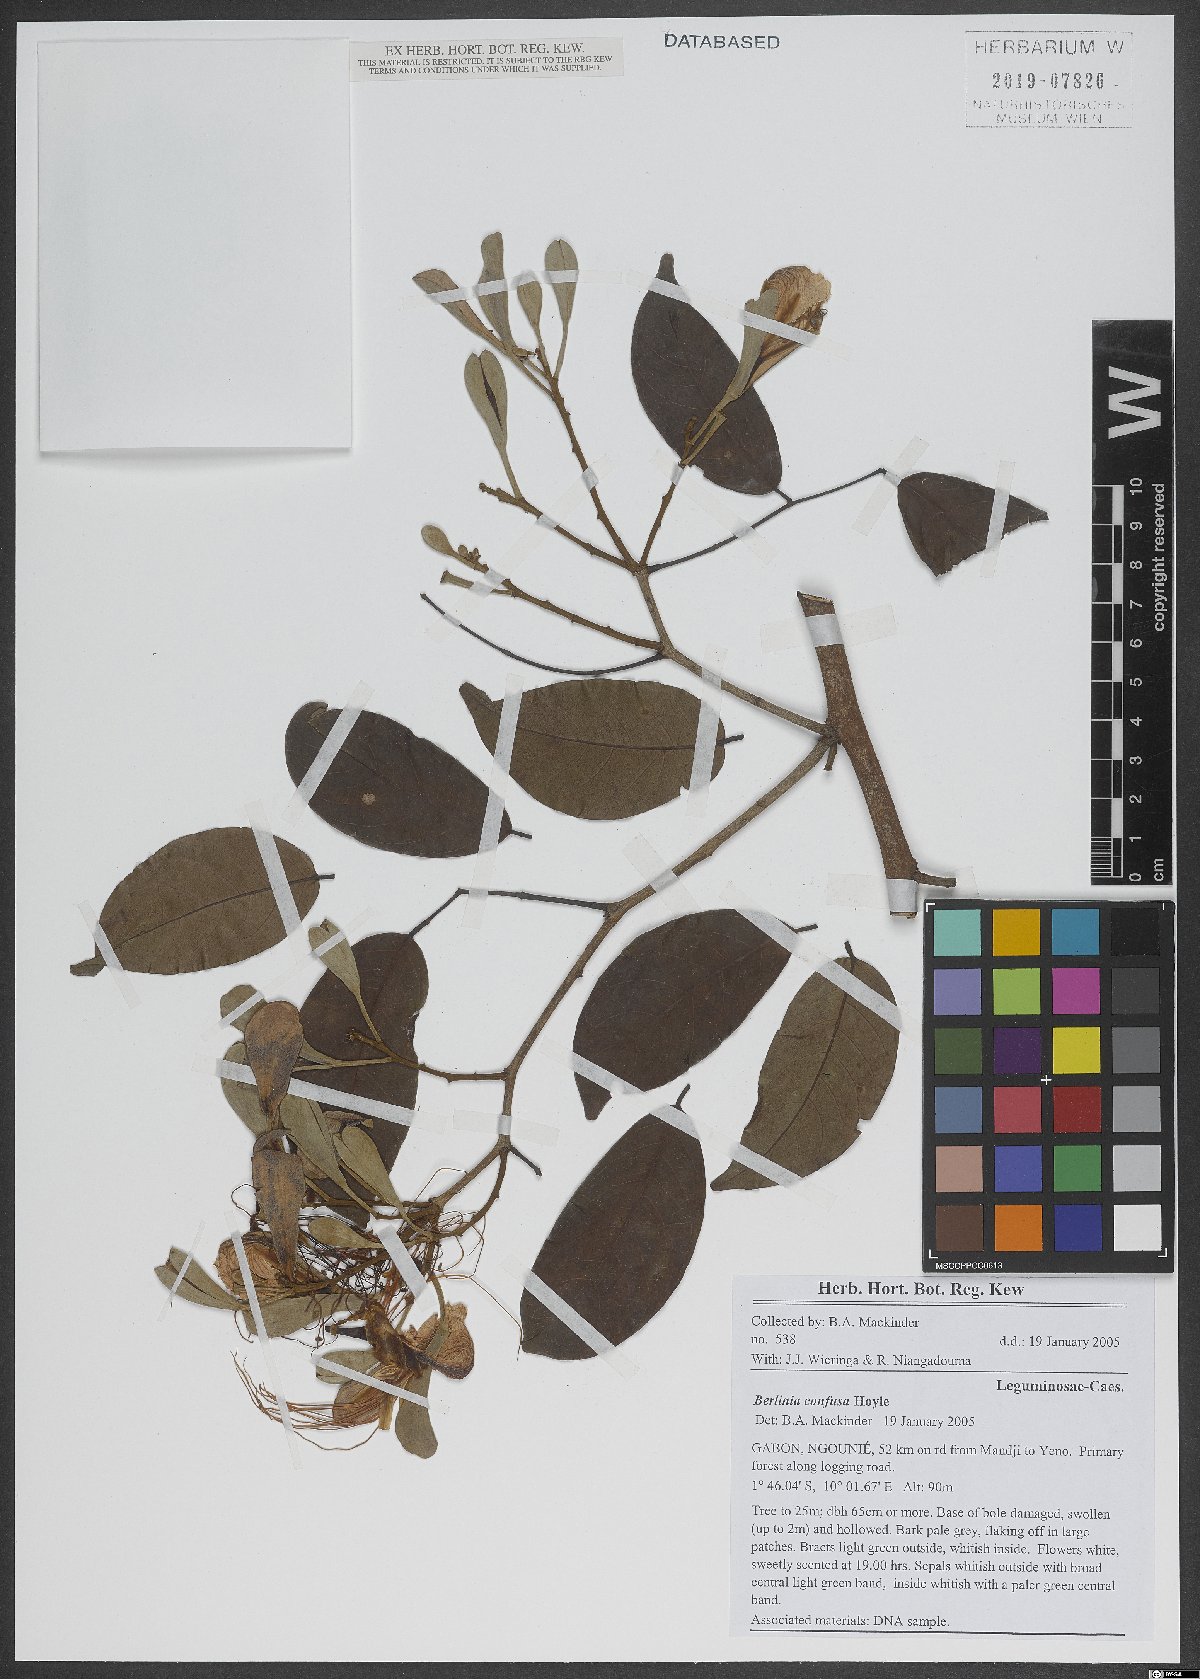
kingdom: Plantae
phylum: Tracheophyta
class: Magnoliopsida
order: Fabales
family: Fabaceae
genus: Berlinia
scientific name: Berlinia confusa
